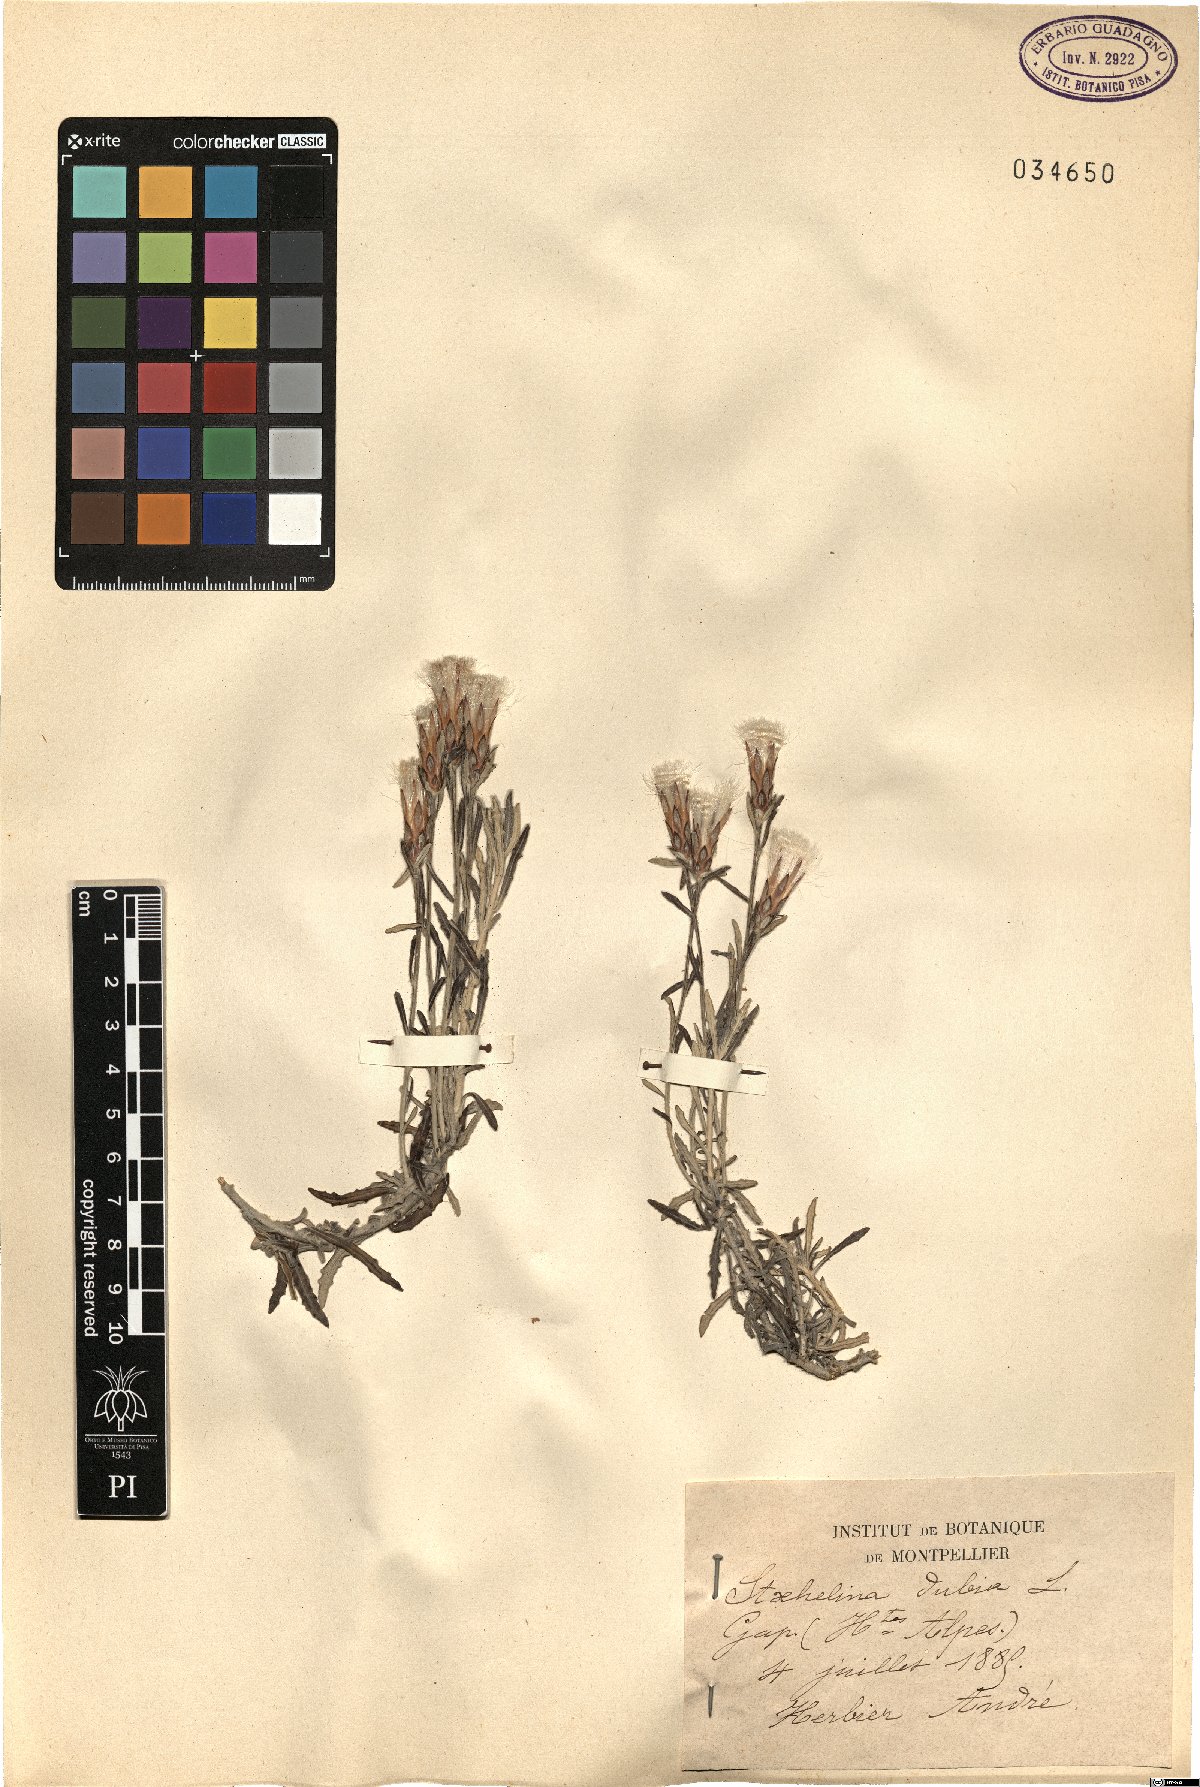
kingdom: Plantae
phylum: Tracheophyta
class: Magnoliopsida
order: Asterales
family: Asteraceae
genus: Staehelina
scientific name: Staehelina dubia
